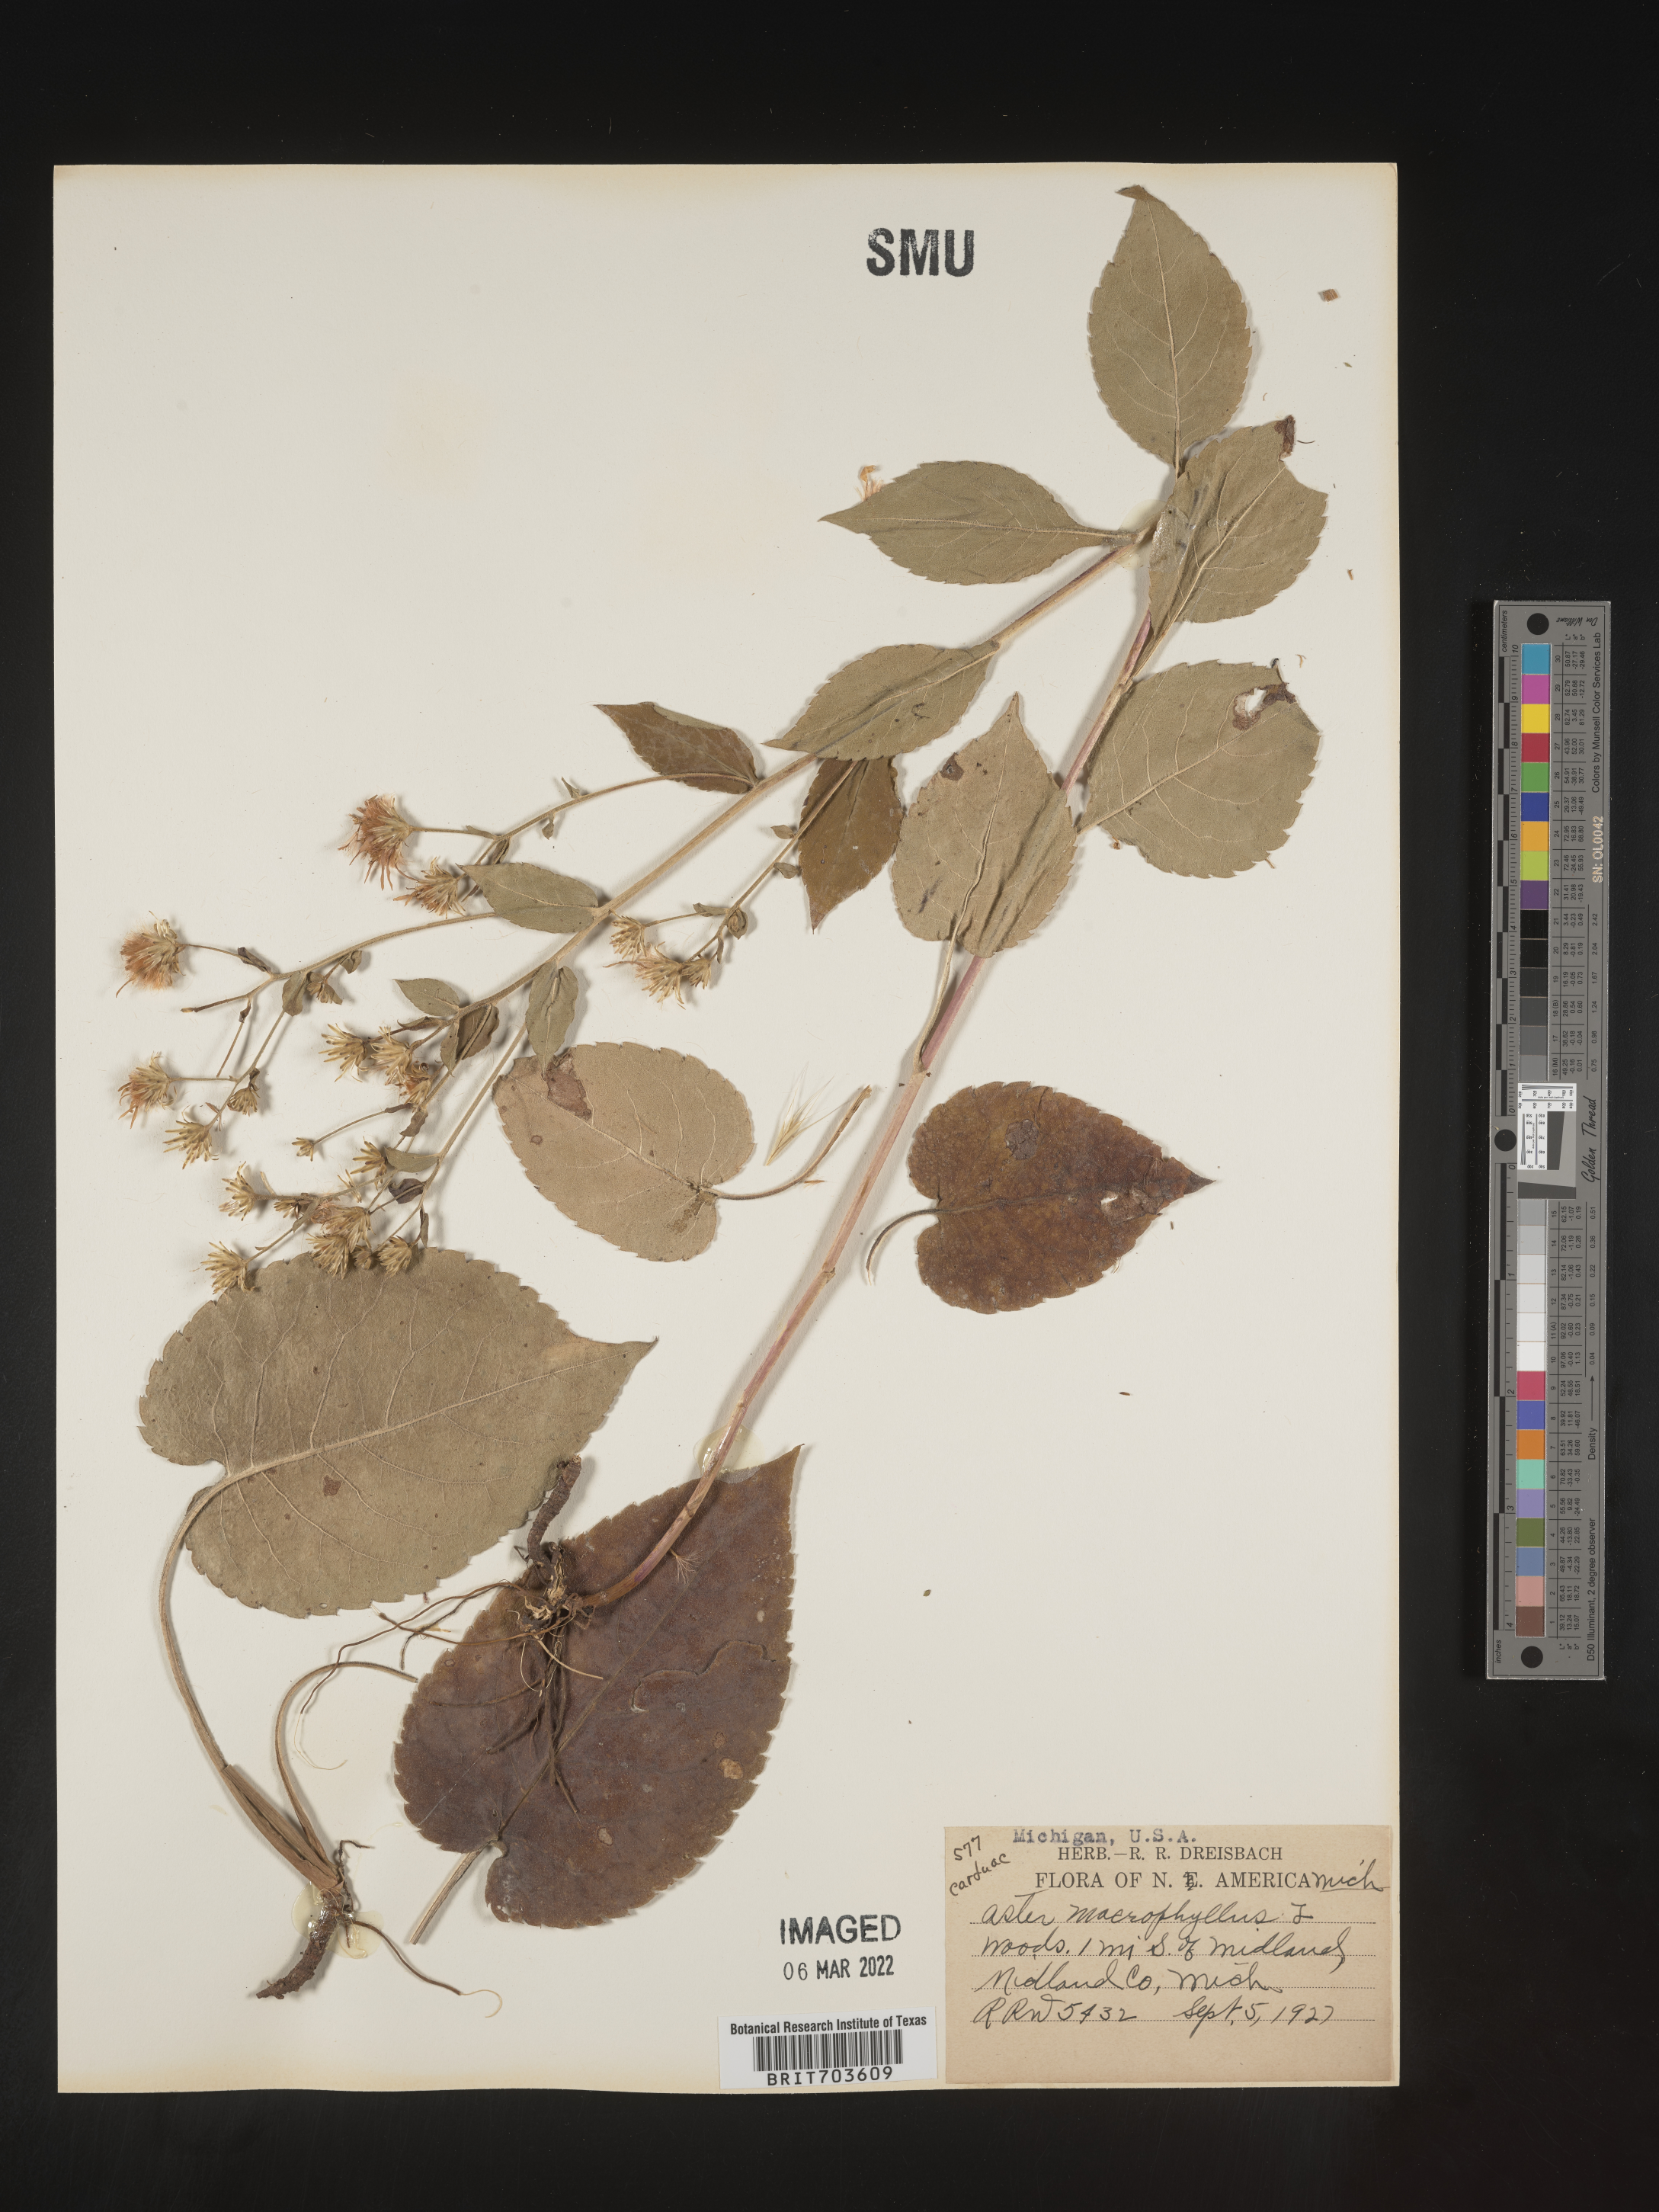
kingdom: Plantae
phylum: Tracheophyta
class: Magnoliopsida
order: Asterales
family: Asteraceae
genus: Eurybia
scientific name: Eurybia macrophylla
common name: Big-leaved aster
